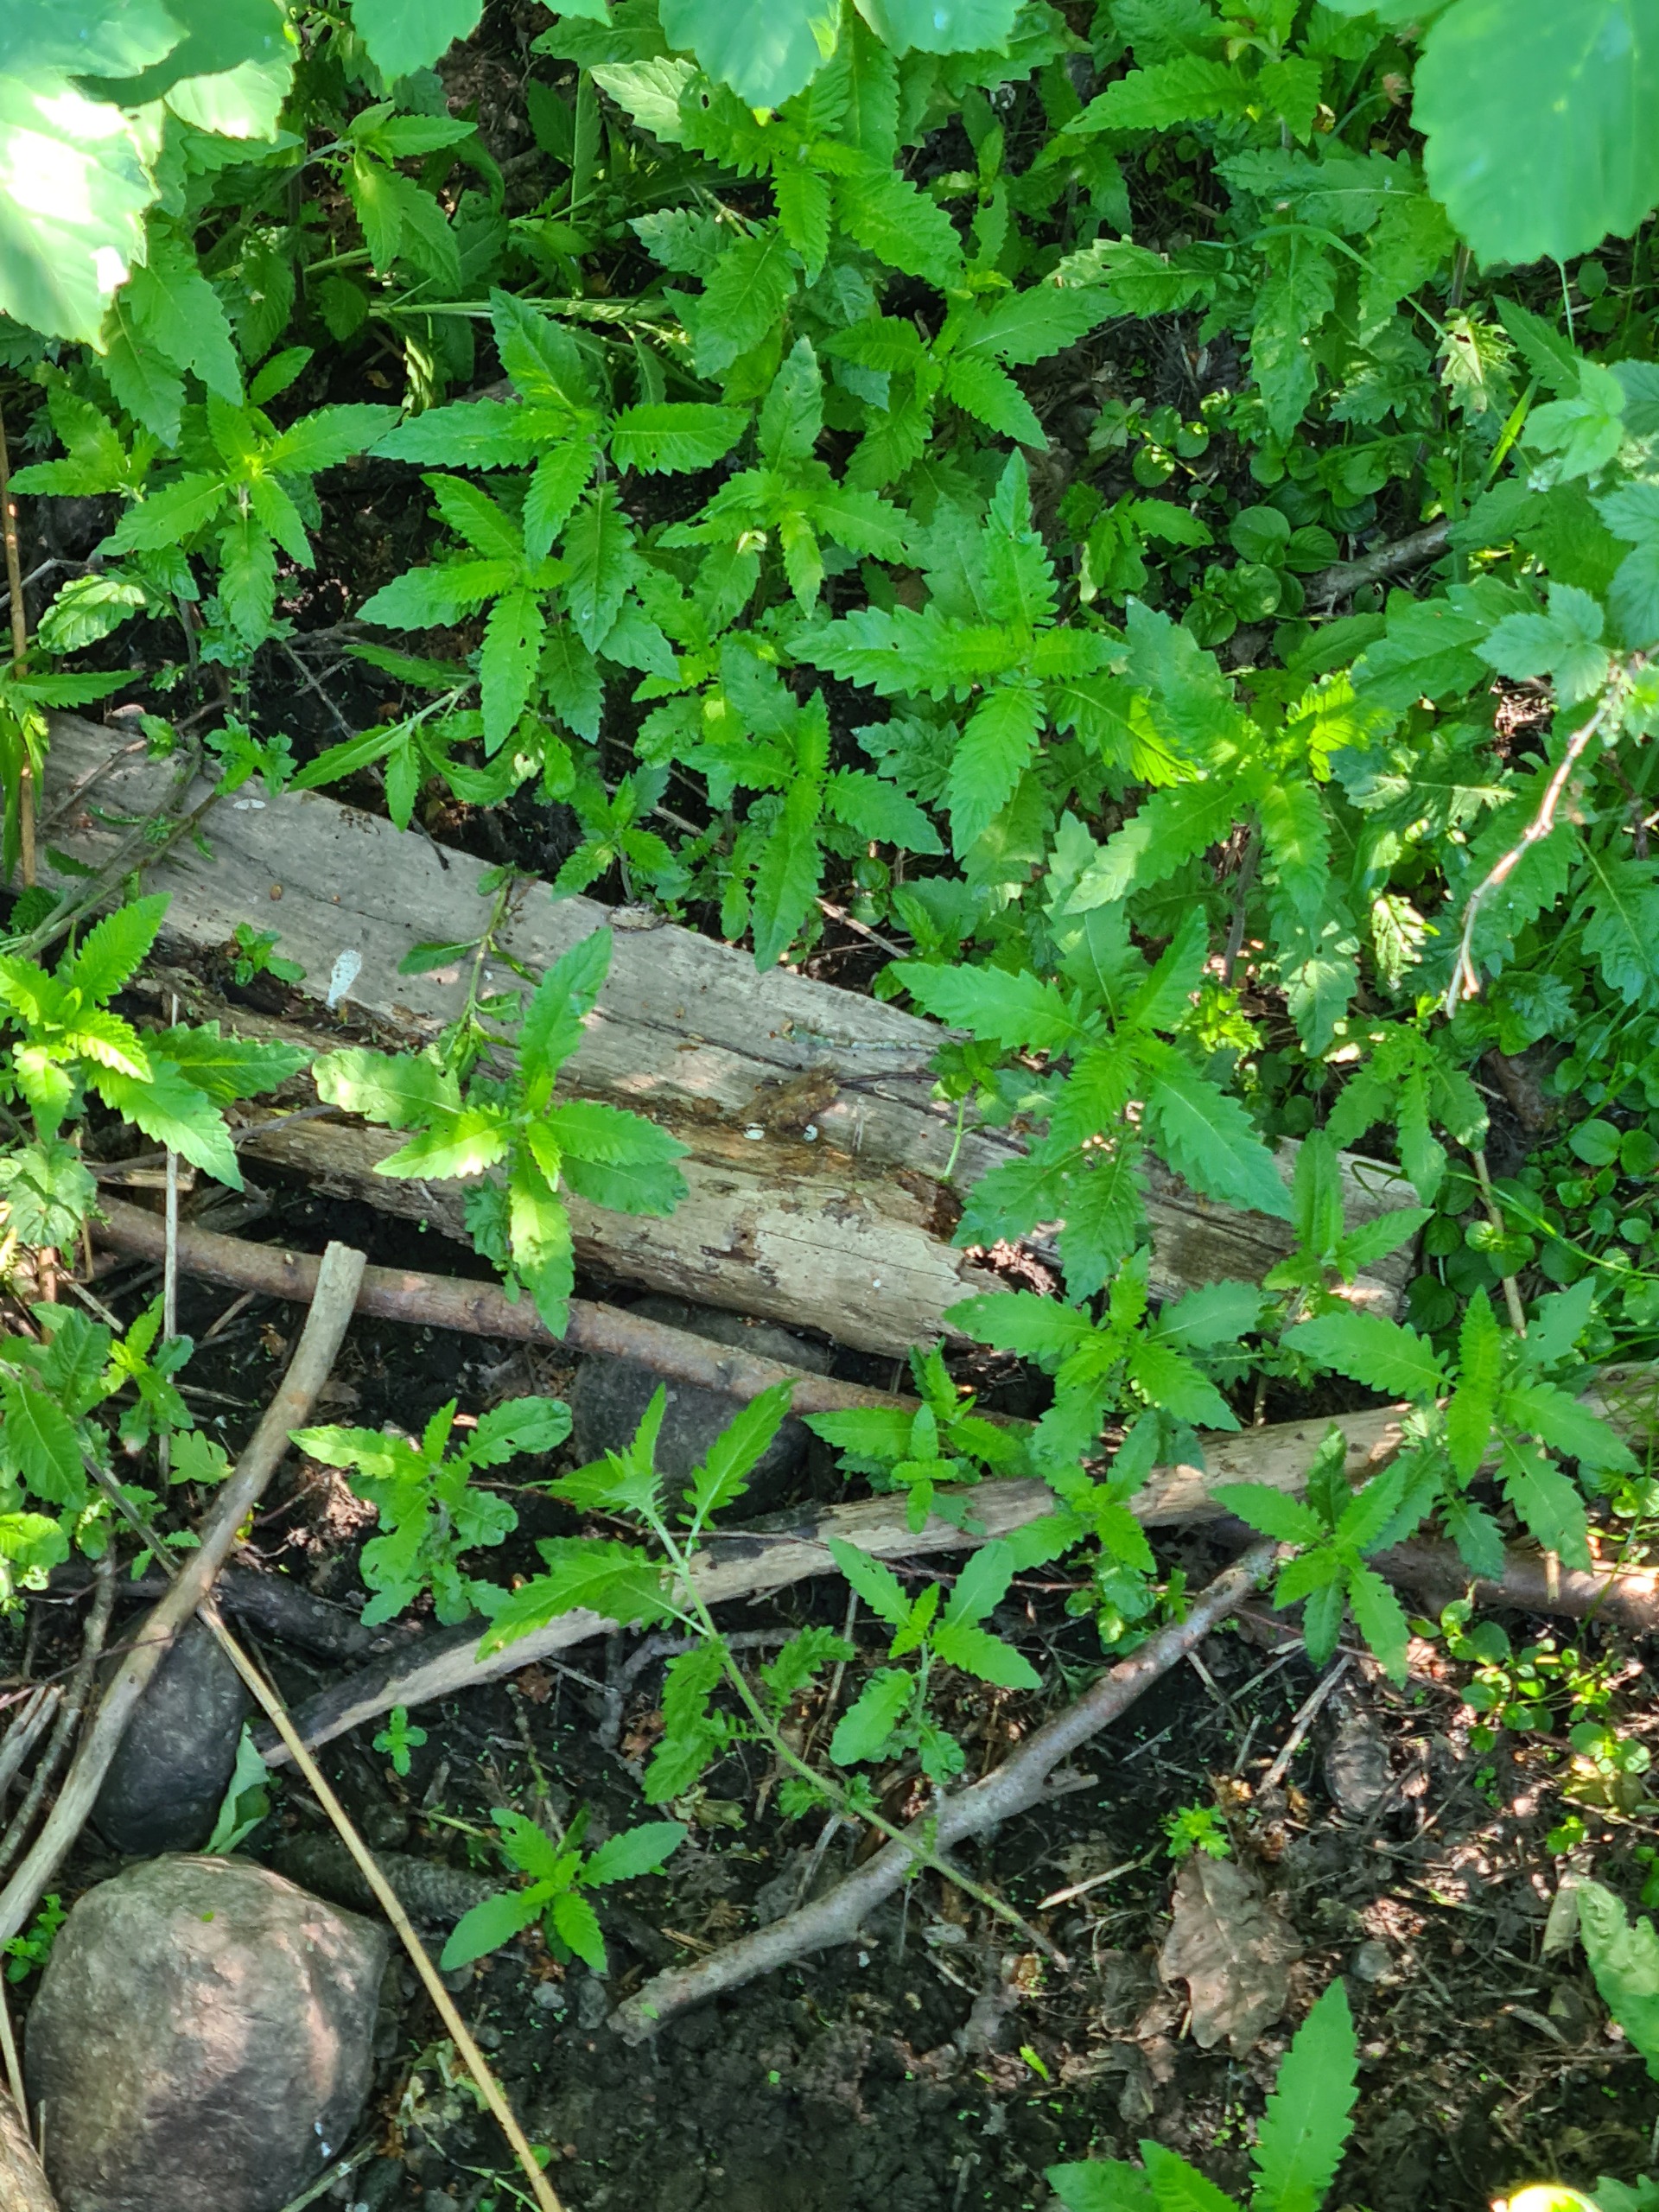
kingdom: Plantae
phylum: Tracheophyta
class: Magnoliopsida
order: Lamiales
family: Lamiaceae
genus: Lycopus
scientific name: Lycopus europaeus
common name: Sværtevæld
